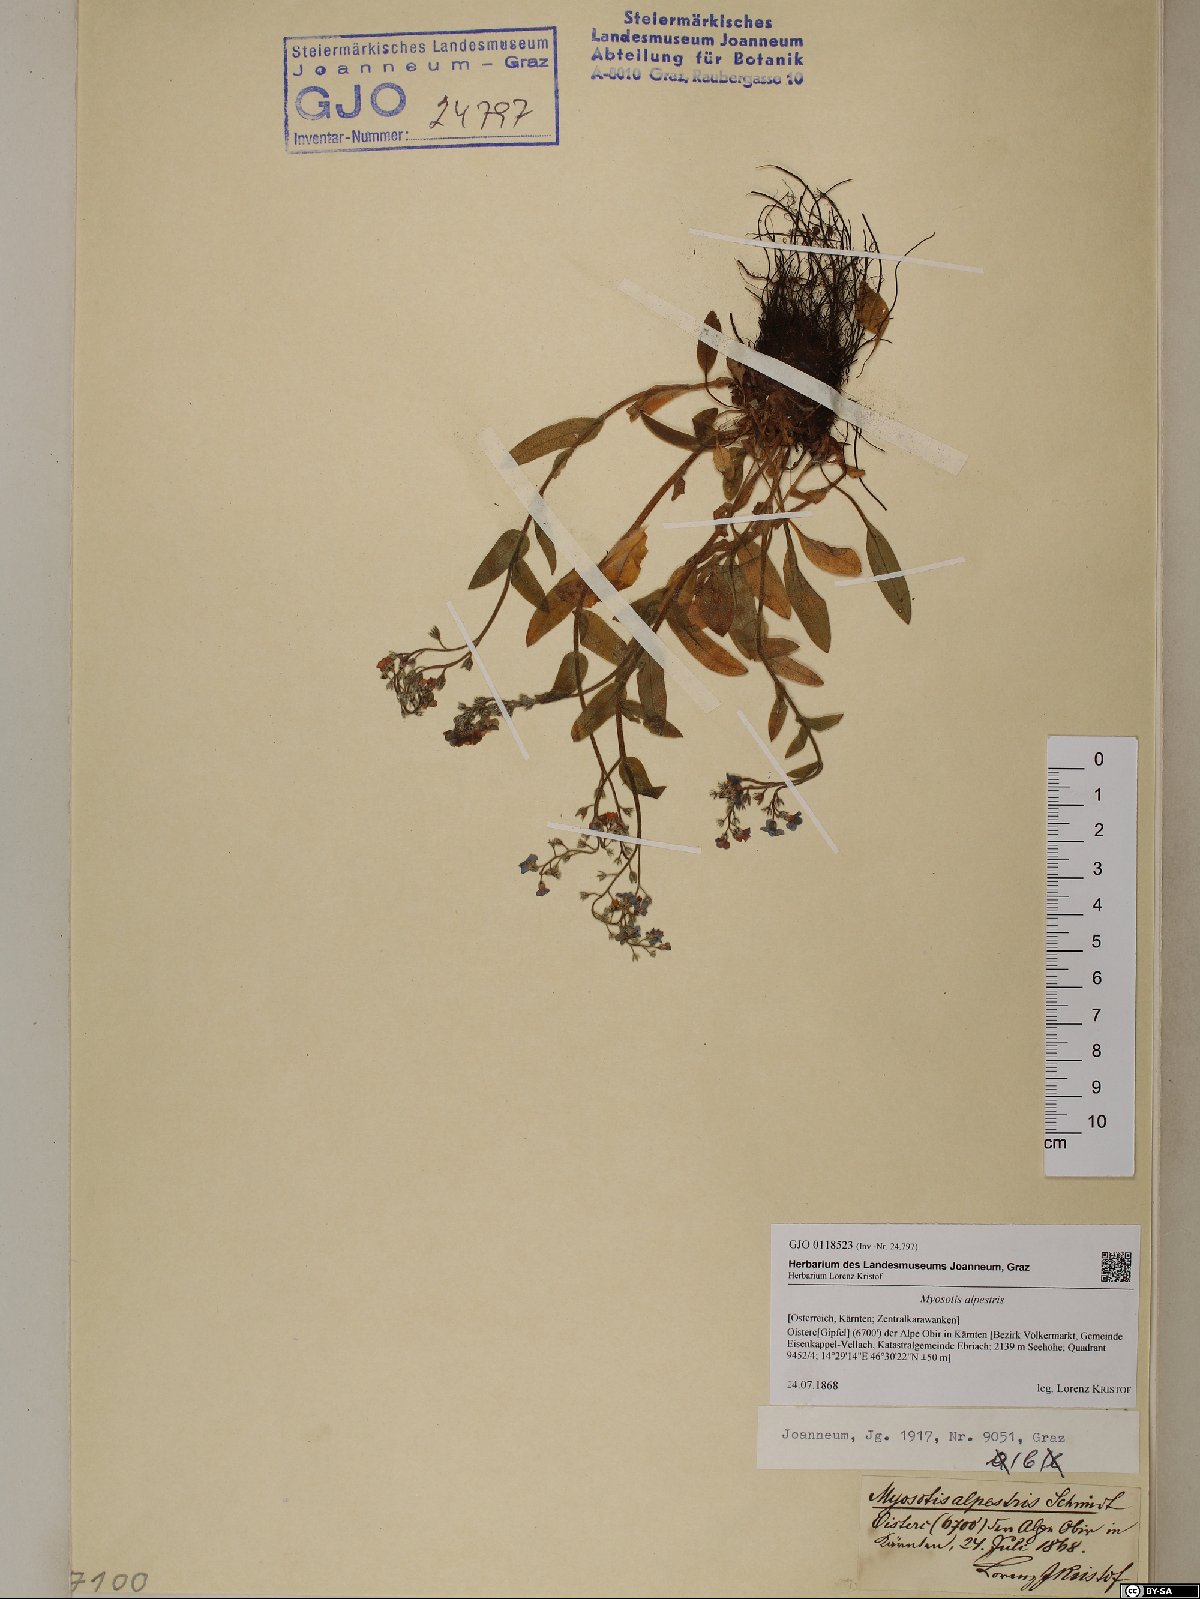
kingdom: Plantae
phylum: Tracheophyta
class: Magnoliopsida
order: Boraginales
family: Boraginaceae
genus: Myosotis
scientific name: Myosotis alpestris
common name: Alpine forget-me-not
